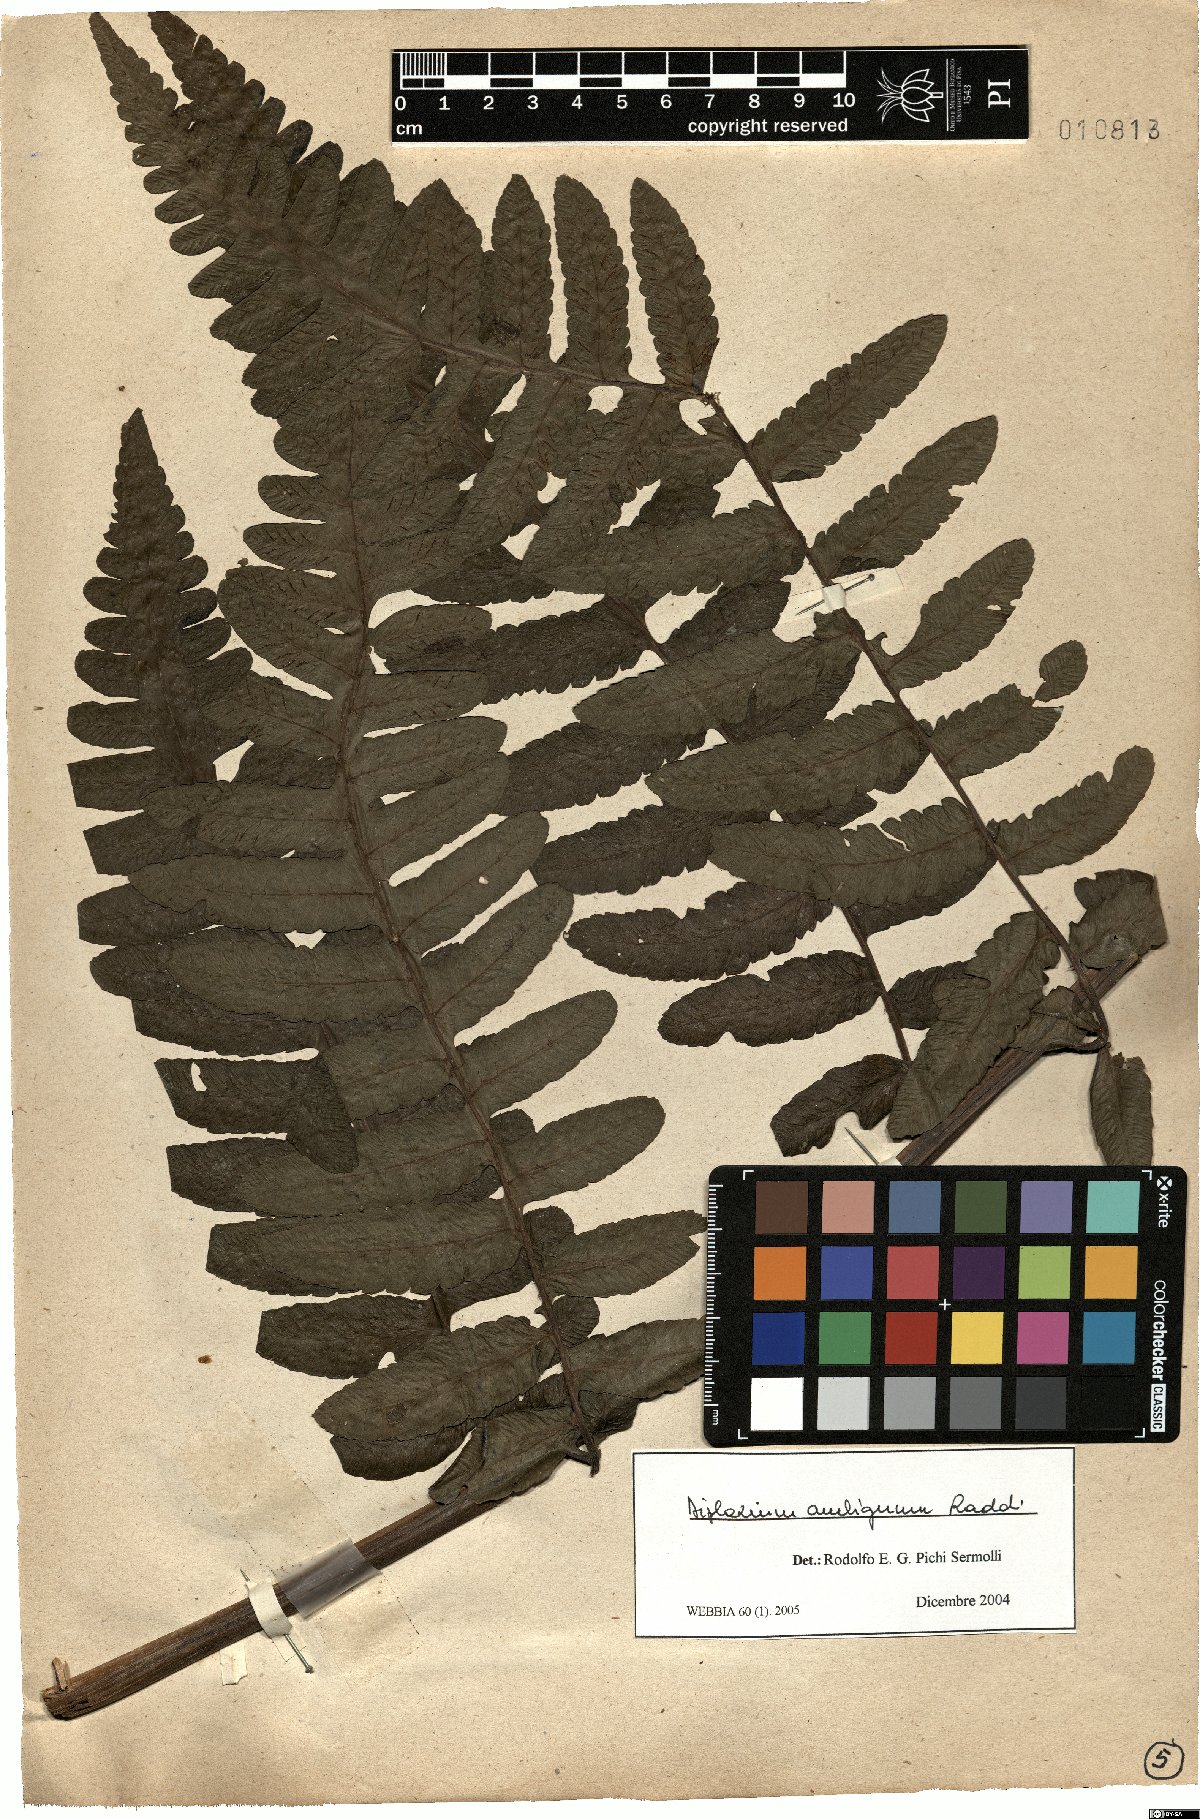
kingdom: Plantae
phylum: Tracheophyta
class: Polypodiopsida
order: Polypodiales
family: Athyriaceae
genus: Diplazium
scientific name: Diplazium ambiguum
